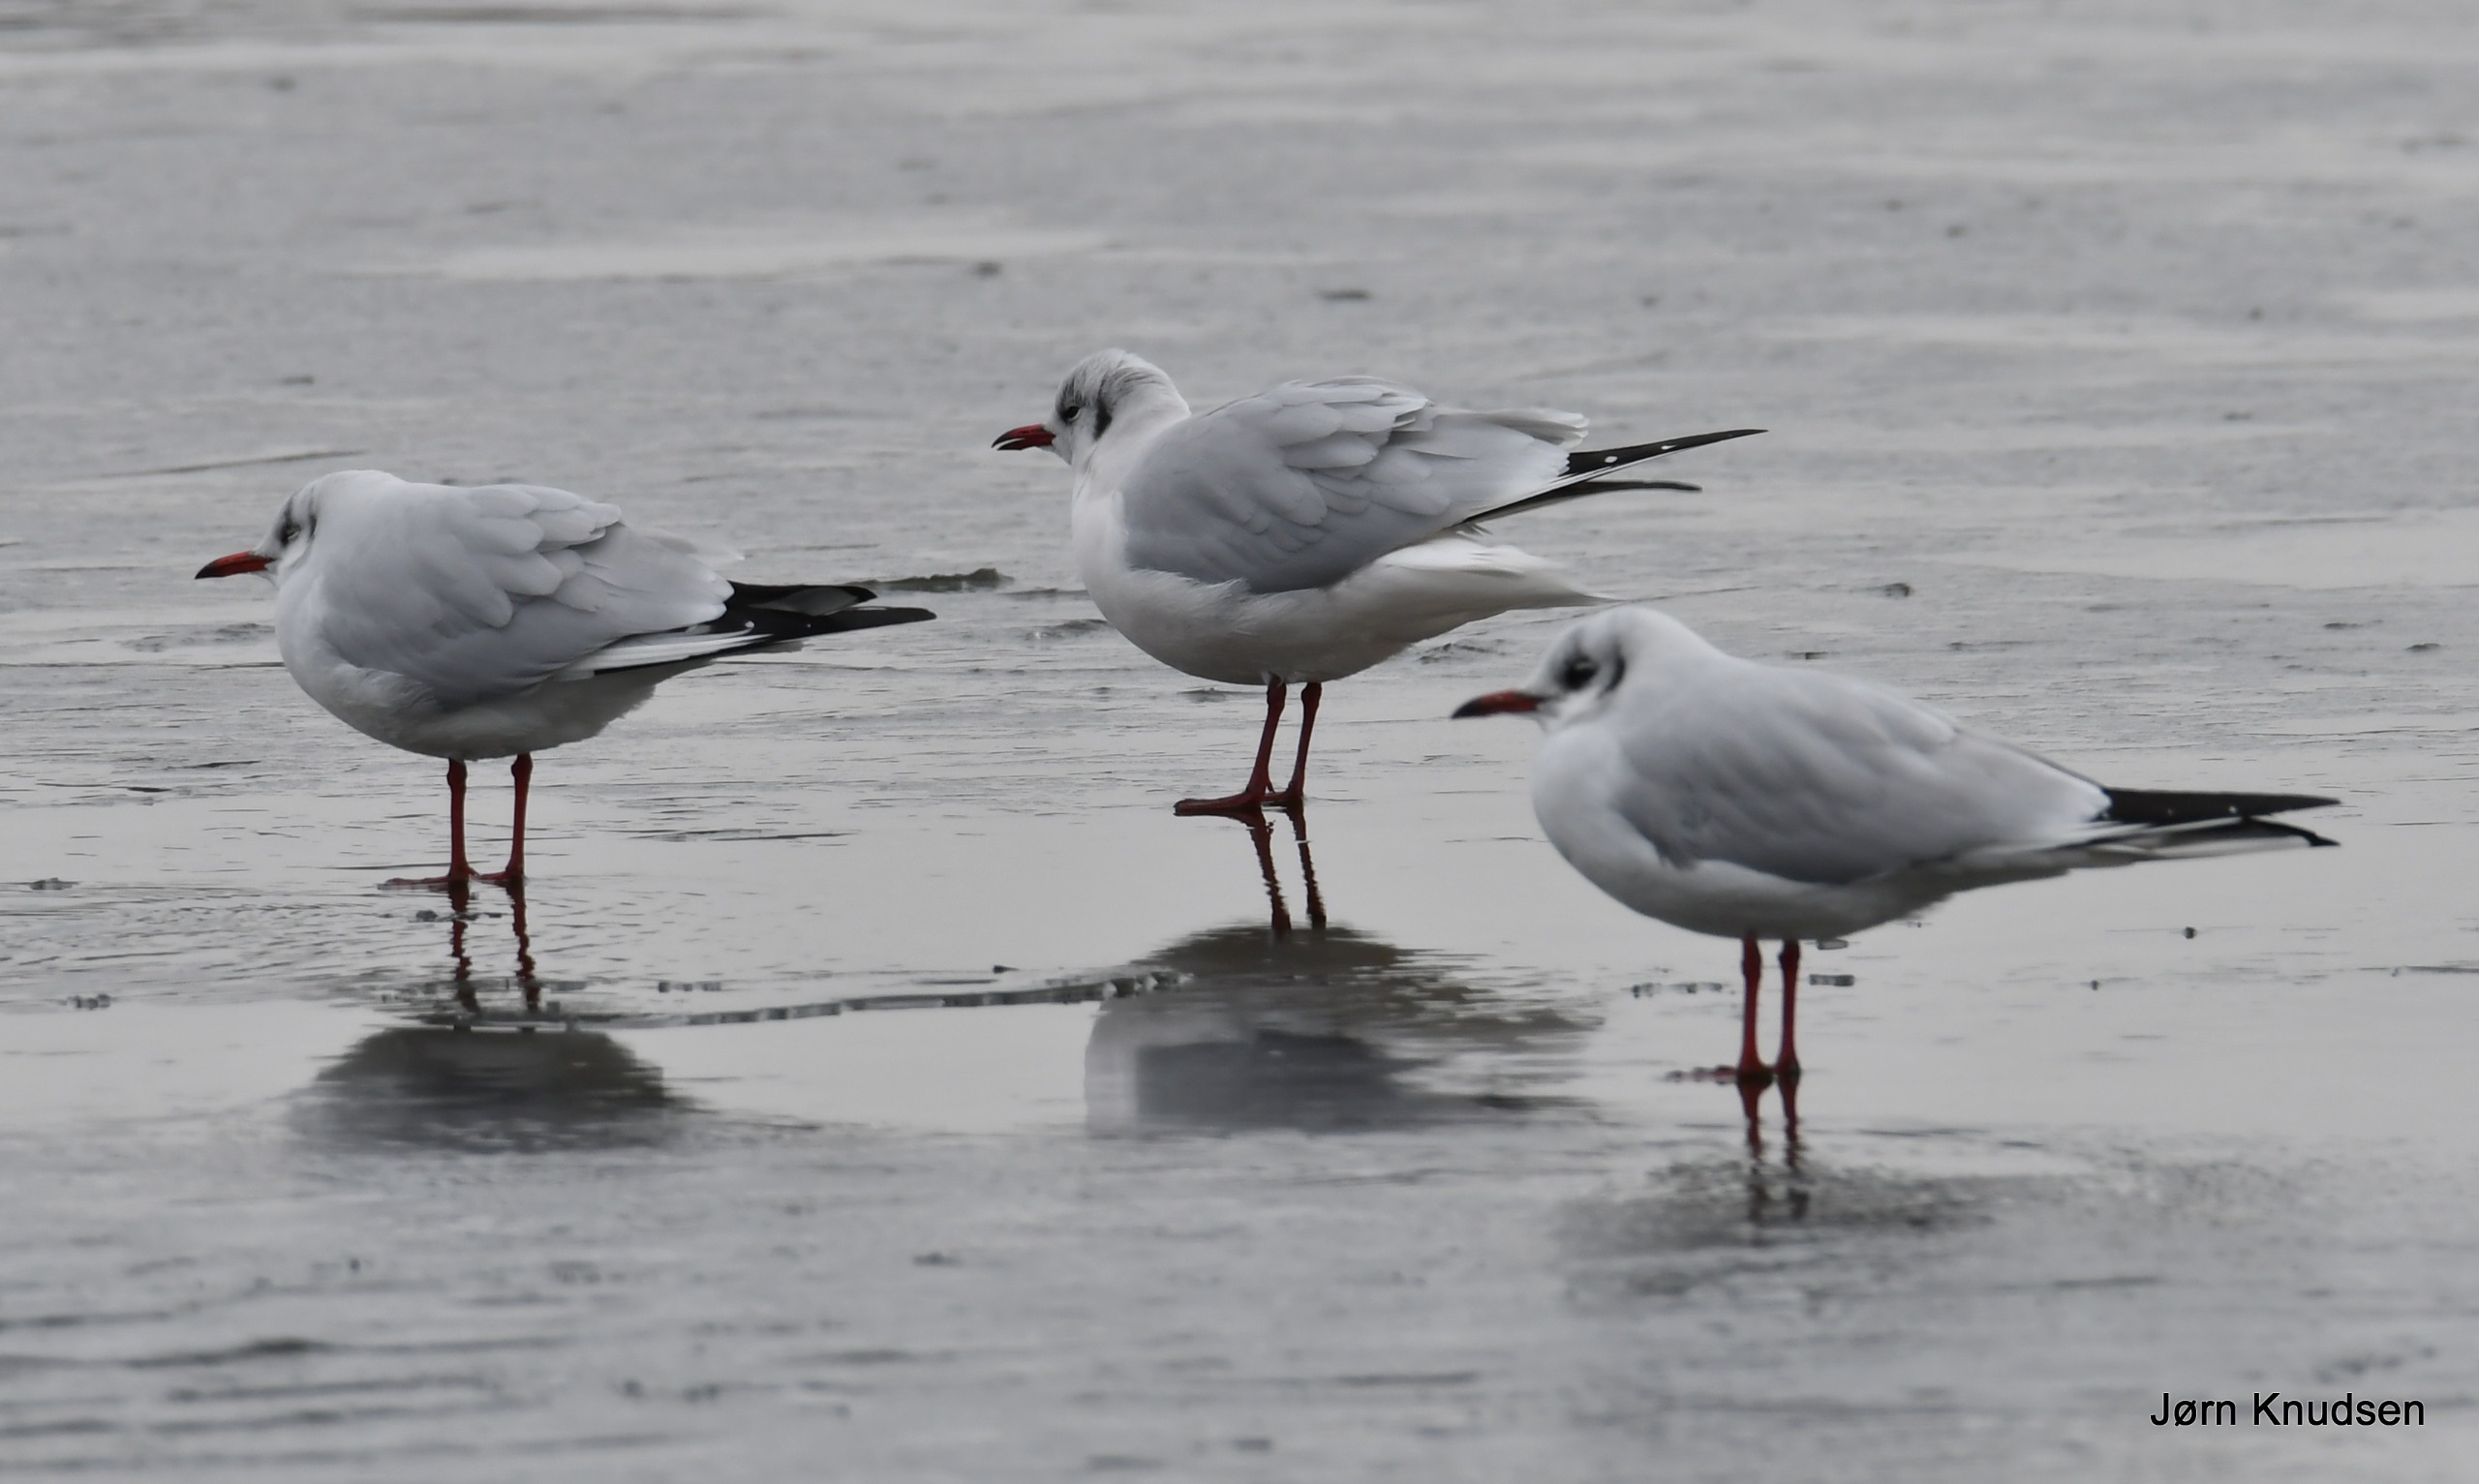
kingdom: Animalia
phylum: Chordata
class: Aves
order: Charadriiformes
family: Laridae
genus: Chroicocephalus
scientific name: Chroicocephalus ridibundus
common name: Hættemåge
